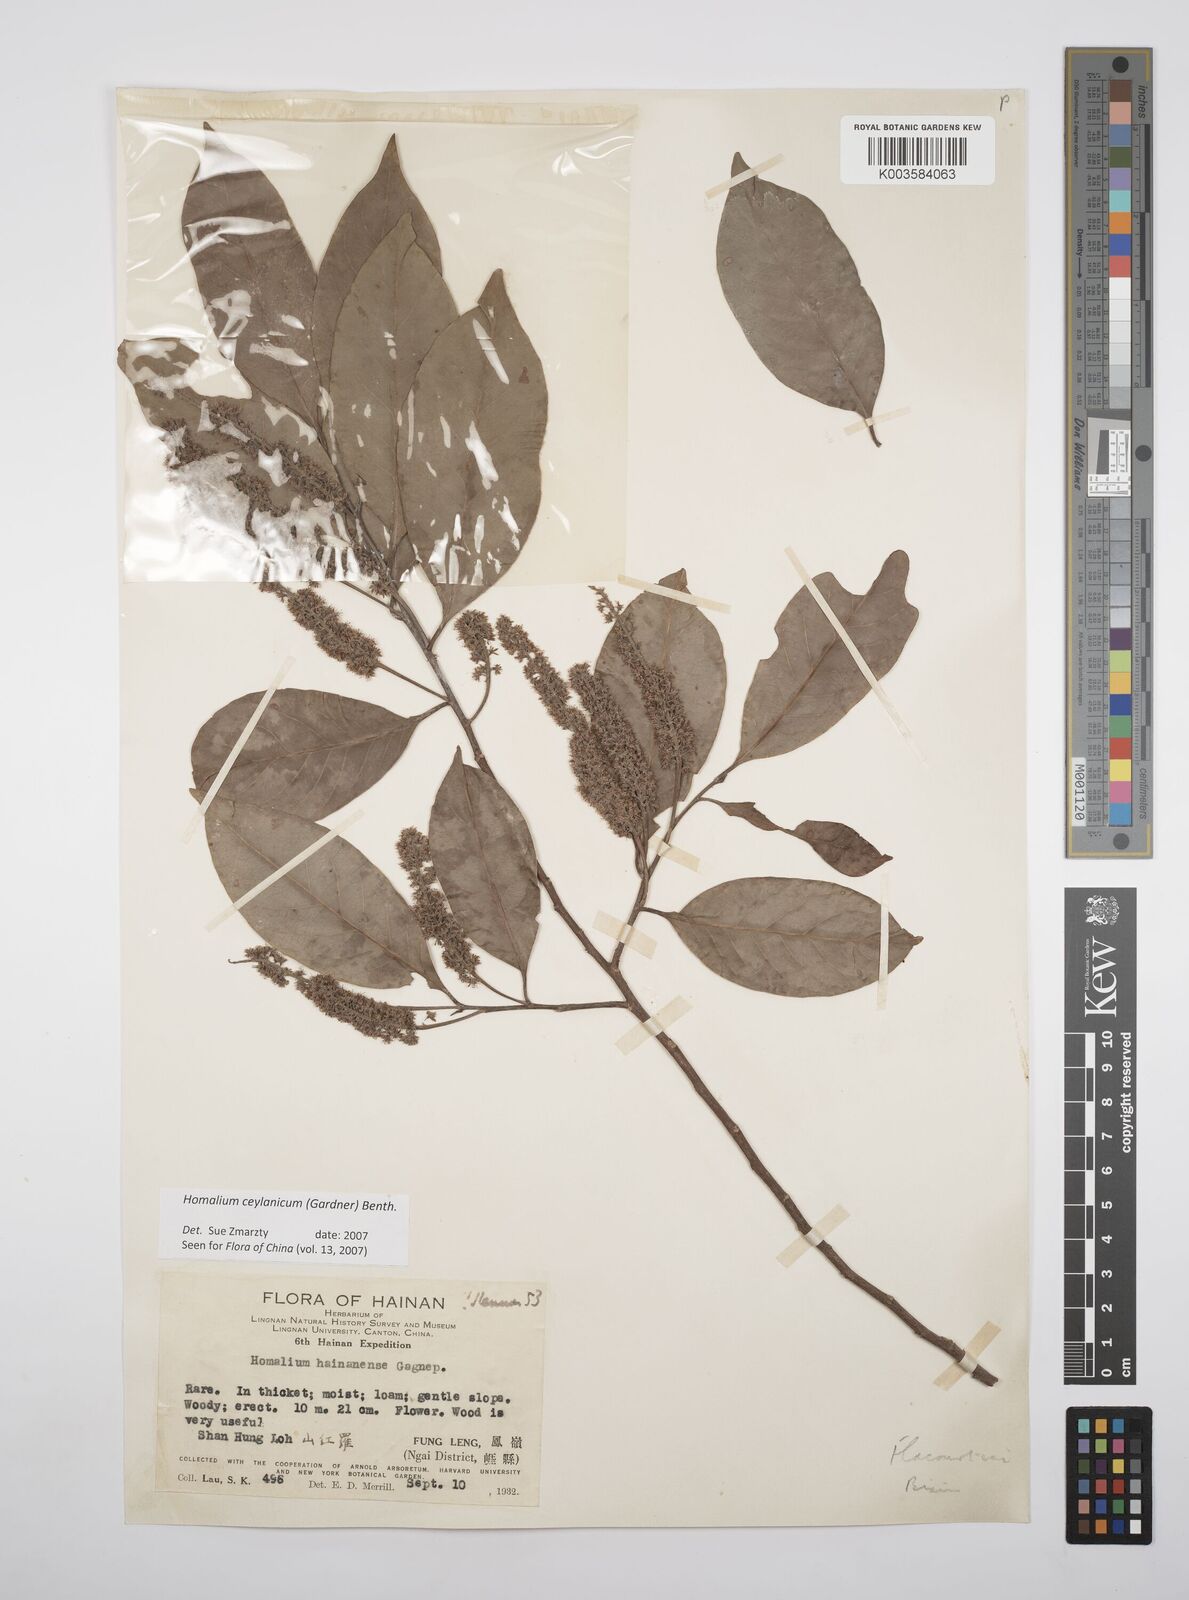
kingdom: Plantae
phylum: Tracheophyta
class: Magnoliopsida
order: Malpighiales
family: Salicaceae
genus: Homalium
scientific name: Homalium ceylanicum
